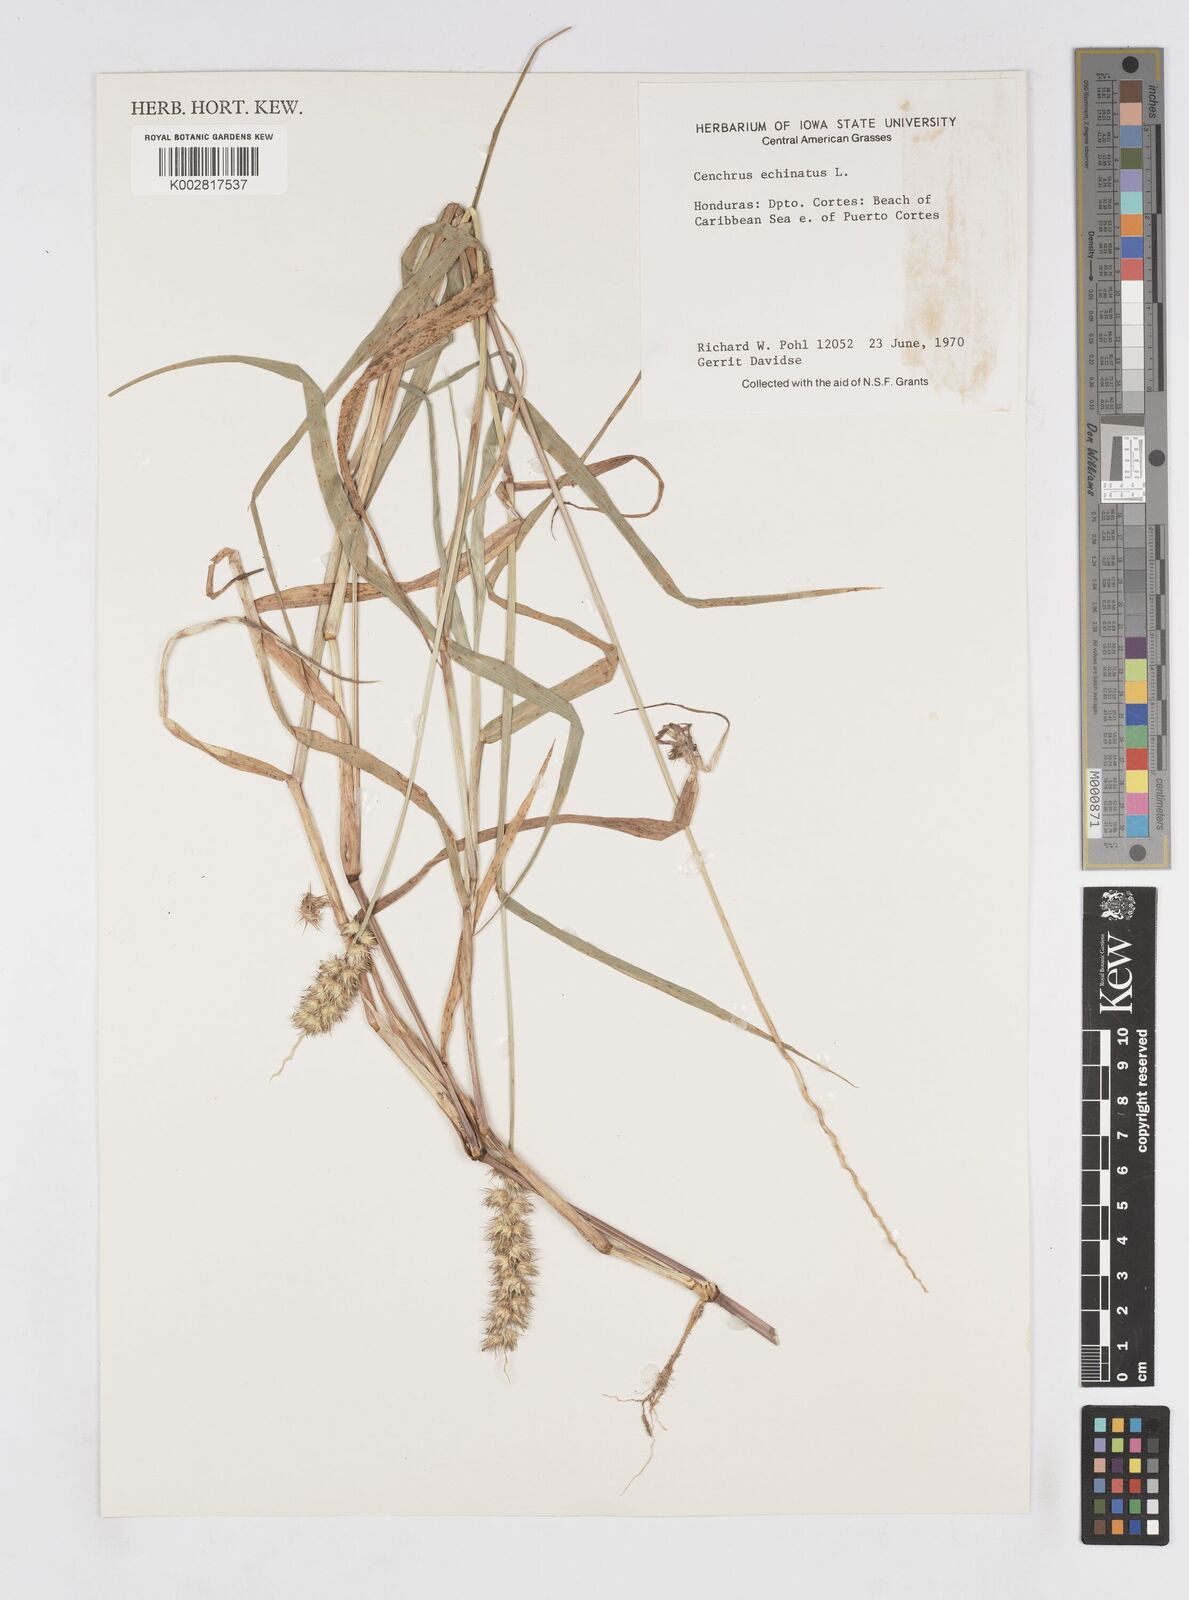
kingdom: Plantae
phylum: Tracheophyta
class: Liliopsida
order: Poales
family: Poaceae
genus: Cenchrus
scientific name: Cenchrus
